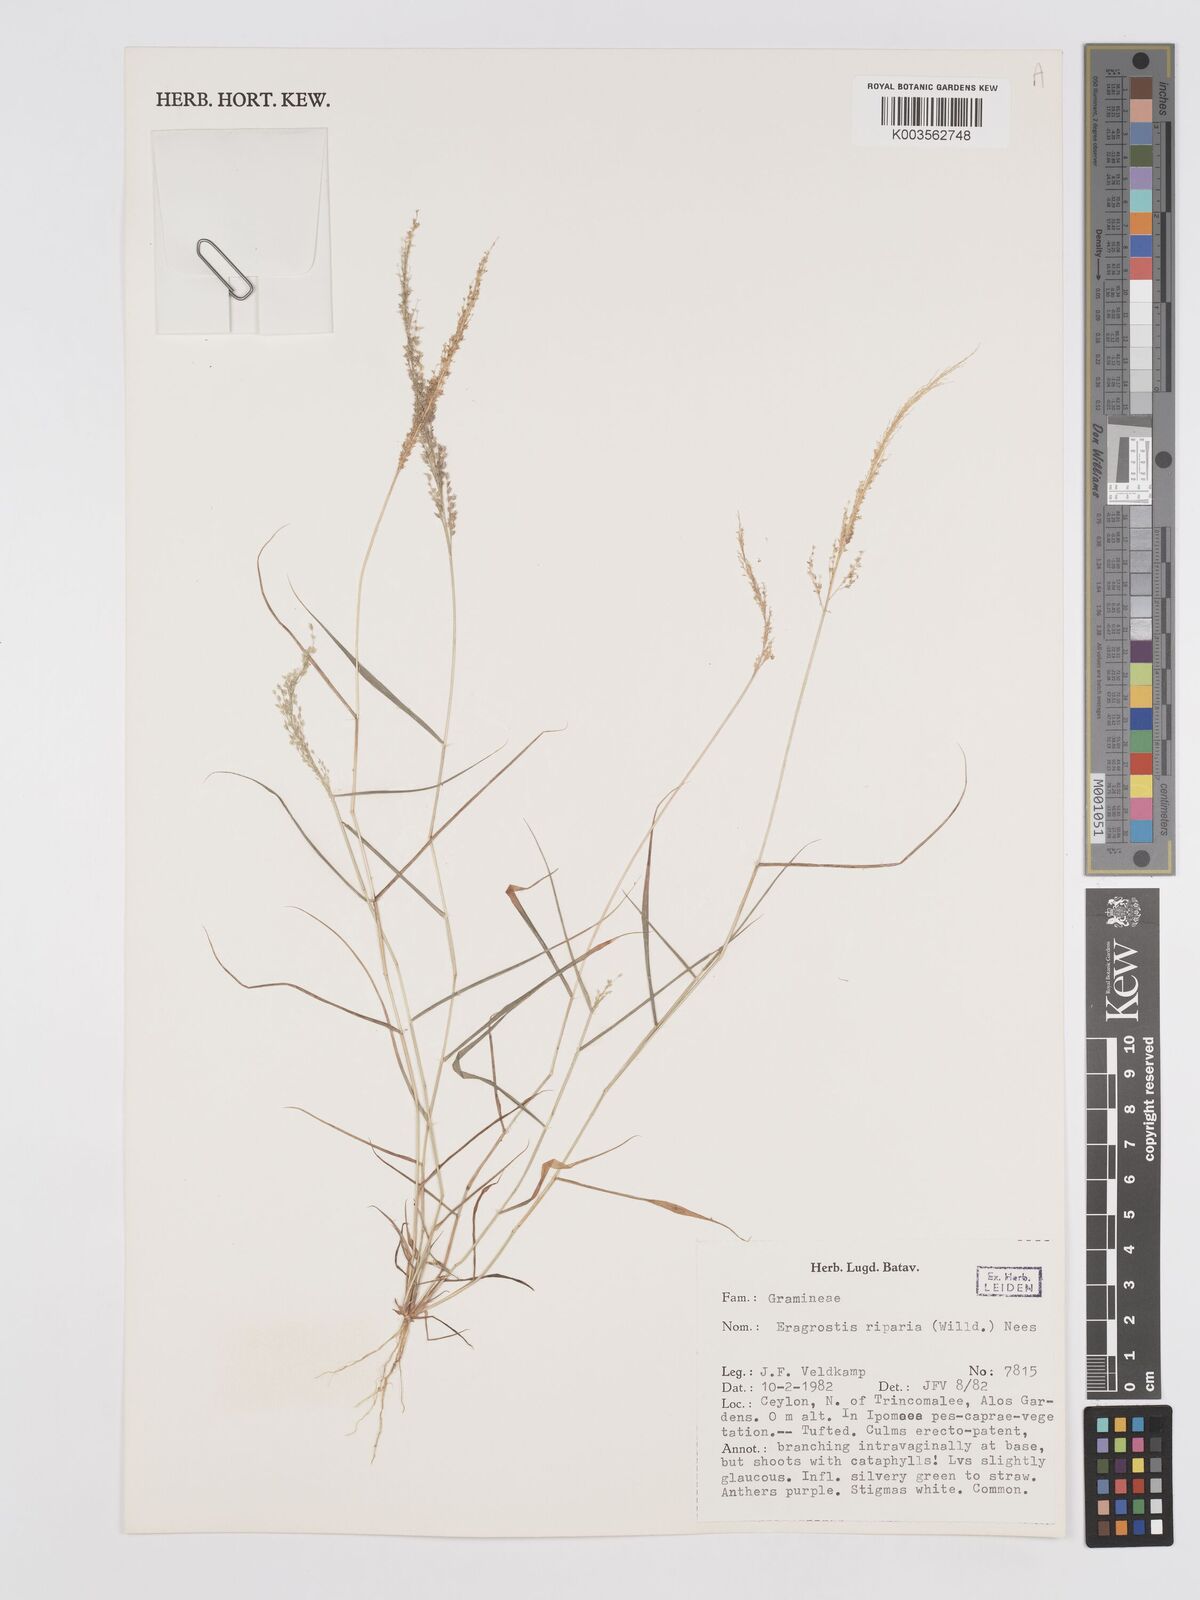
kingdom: Plantae
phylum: Tracheophyta
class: Liliopsida
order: Poales
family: Poaceae
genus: Eragrostis
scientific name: Eragrostis riparia
